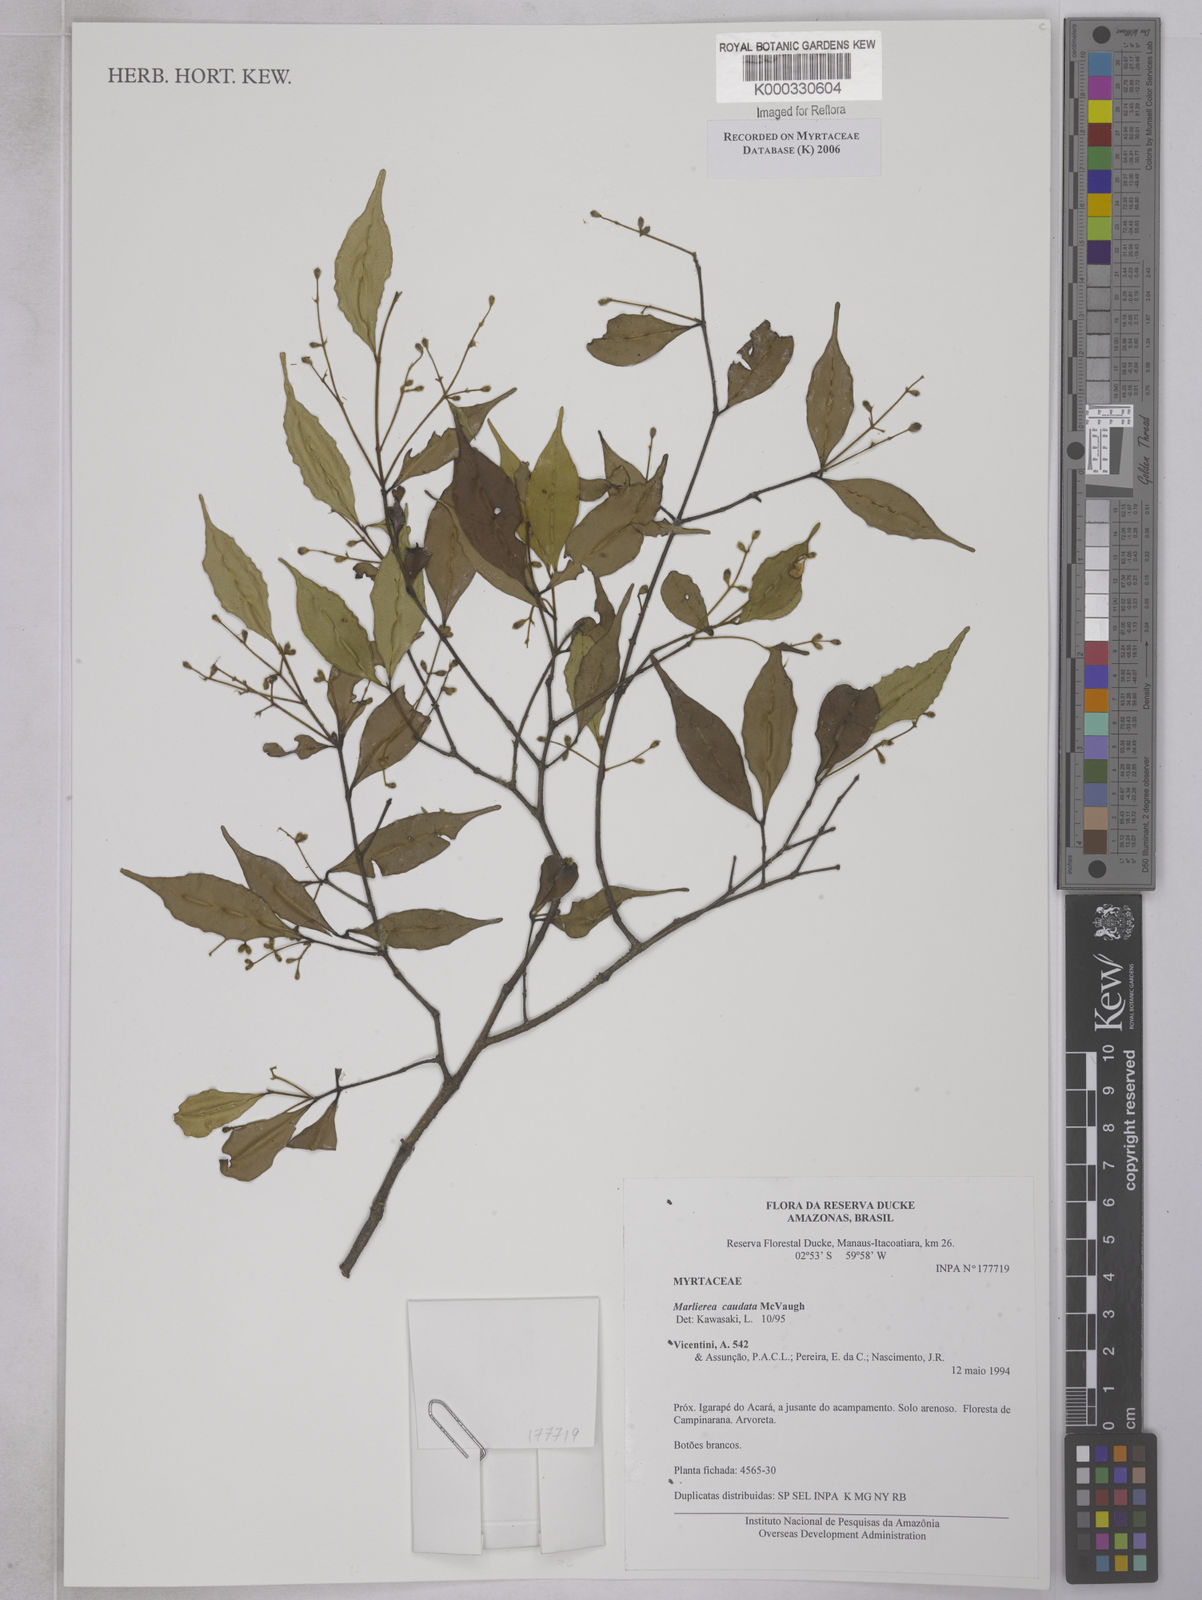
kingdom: Plantae
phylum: Tracheophyta
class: Magnoliopsida
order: Myrtales
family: Myrtaceae
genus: Myrcia
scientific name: Myrcia caudata
